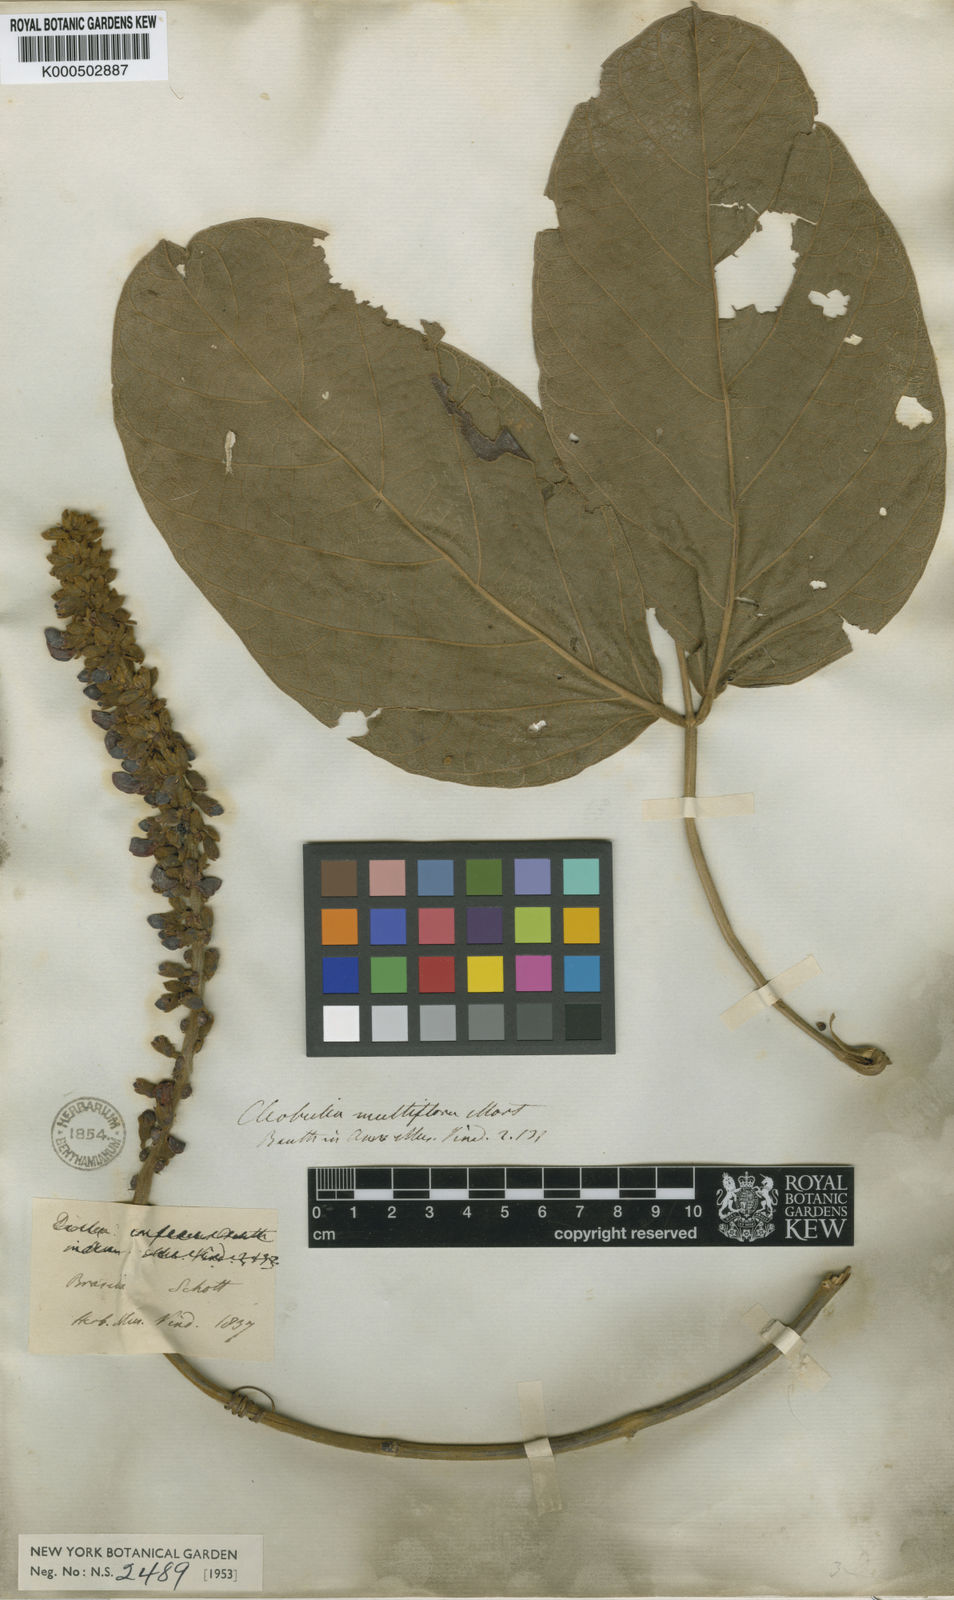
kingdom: Plantae
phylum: Tracheophyta
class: Magnoliopsida
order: Fabales
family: Fabaceae
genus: Cleobulia
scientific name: Cleobulia coccinea
